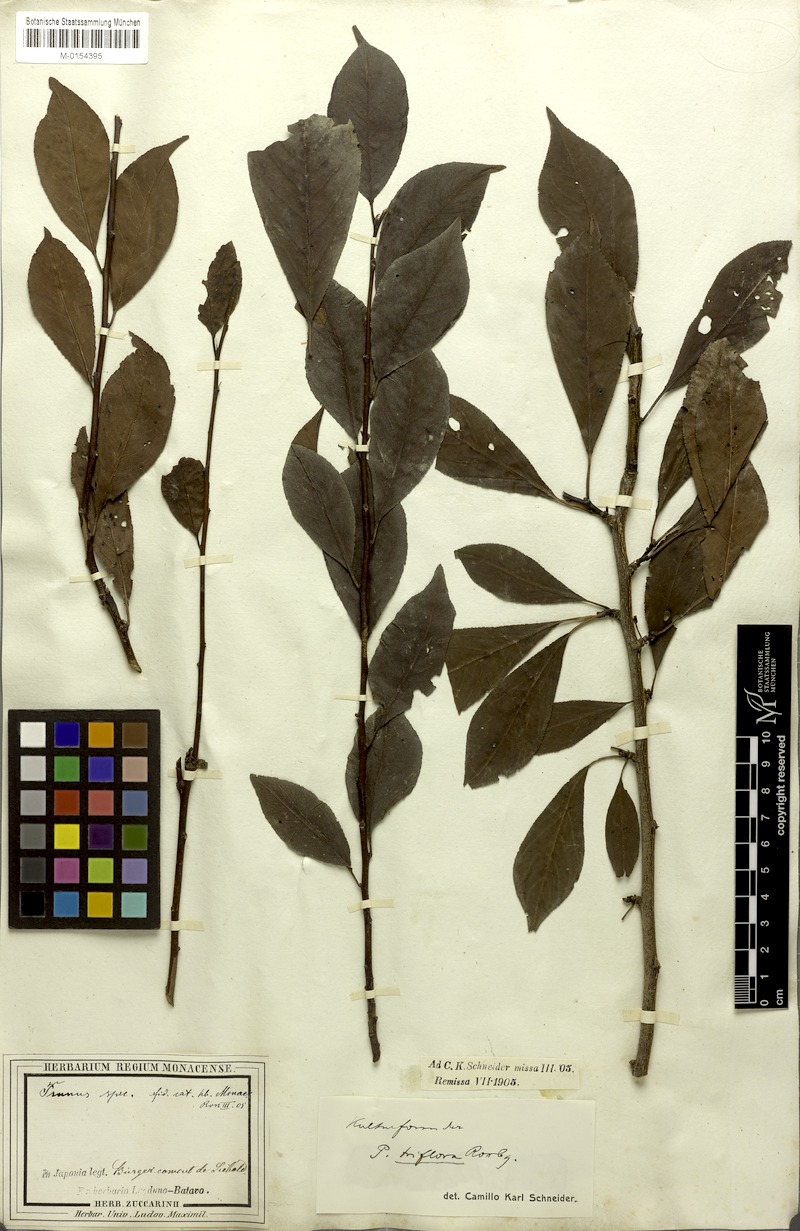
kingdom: Plantae
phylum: Tracheophyta
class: Magnoliopsida
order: Rosales
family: Rosaceae
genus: Prunus
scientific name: Prunus salicina
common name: Asian plum
